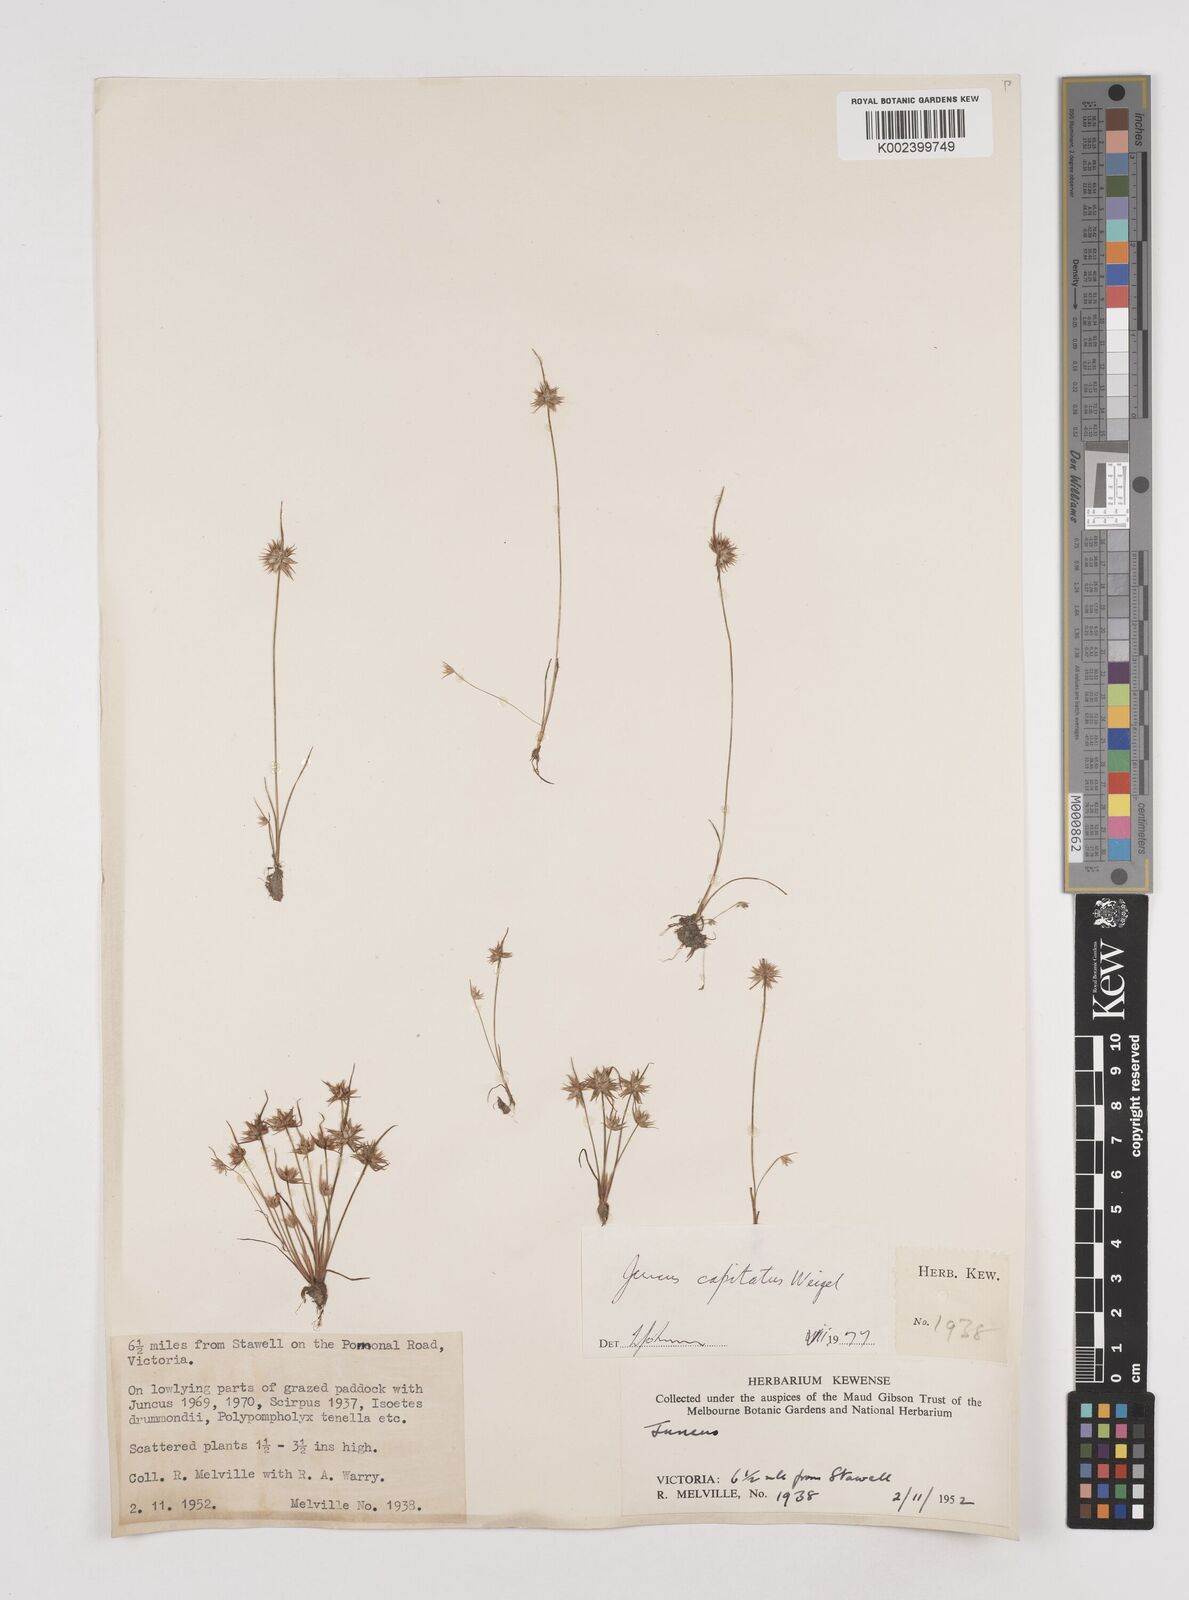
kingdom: Plantae
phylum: Tracheophyta
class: Liliopsida
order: Poales
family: Juncaceae
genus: Juncus
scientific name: Juncus capitatus
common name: Dwarf rush
